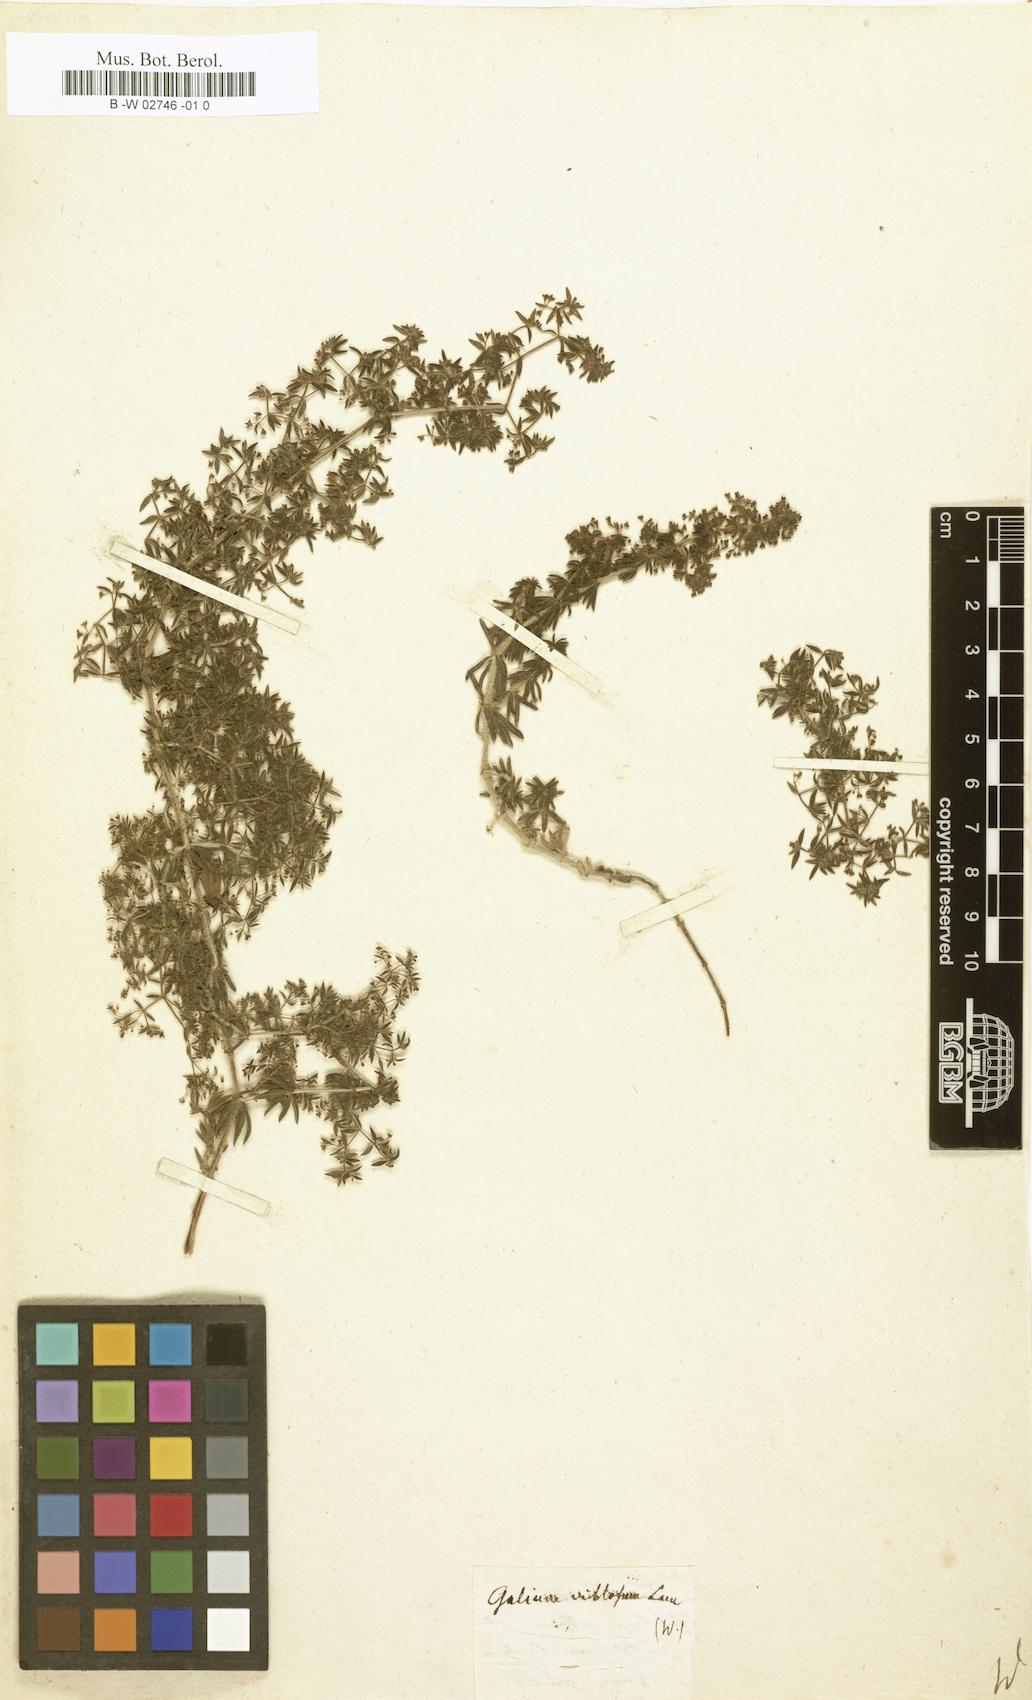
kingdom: Plantae
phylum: Tracheophyta
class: Magnoliopsida
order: Gentianales
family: Rubiaceae
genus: Galium
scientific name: Galium
